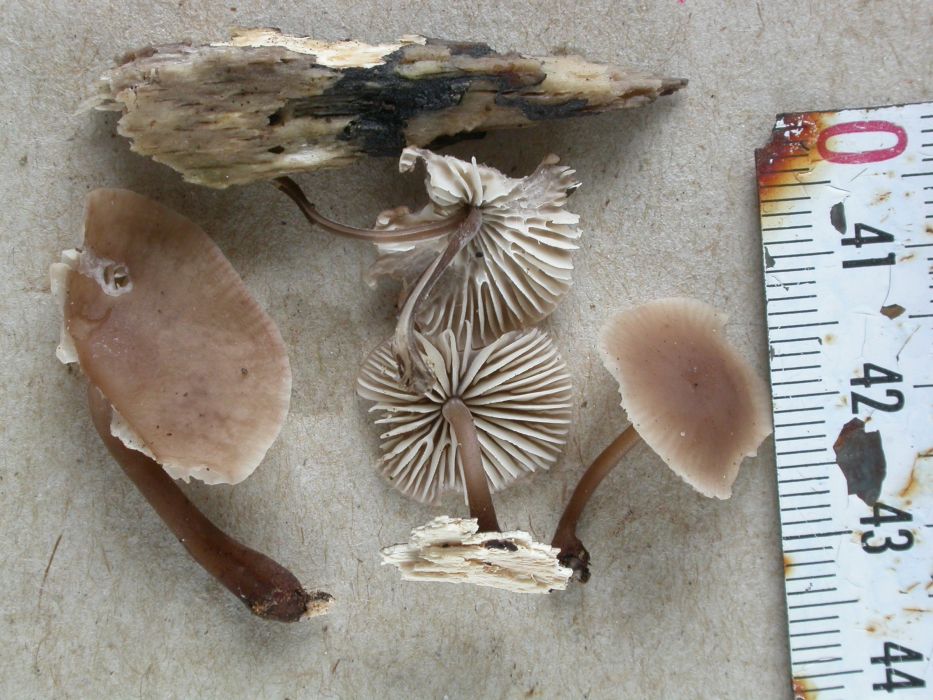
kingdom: Fungi
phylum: Basidiomycota
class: Agaricomycetes
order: Agaricales
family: Omphalotaceae
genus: Mycetinis
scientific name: Mycetinis alliaceus
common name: stor løghat
